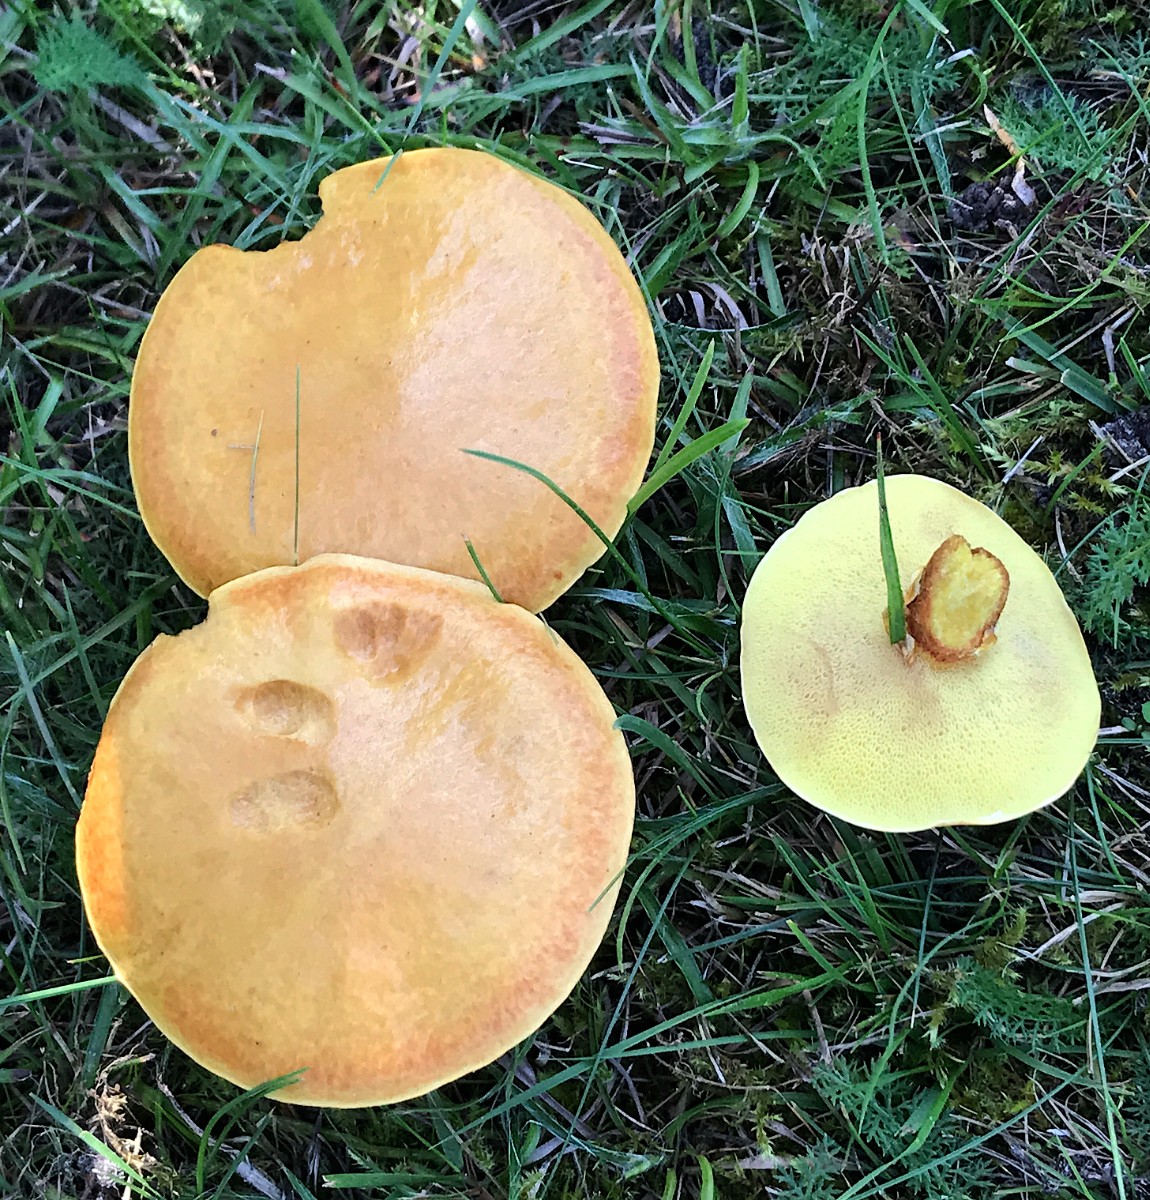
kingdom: Fungi
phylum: Basidiomycota
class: Agaricomycetes
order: Boletales
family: Suillaceae
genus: Suillus
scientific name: Suillus grevillei
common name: lærke-slimrørhat
